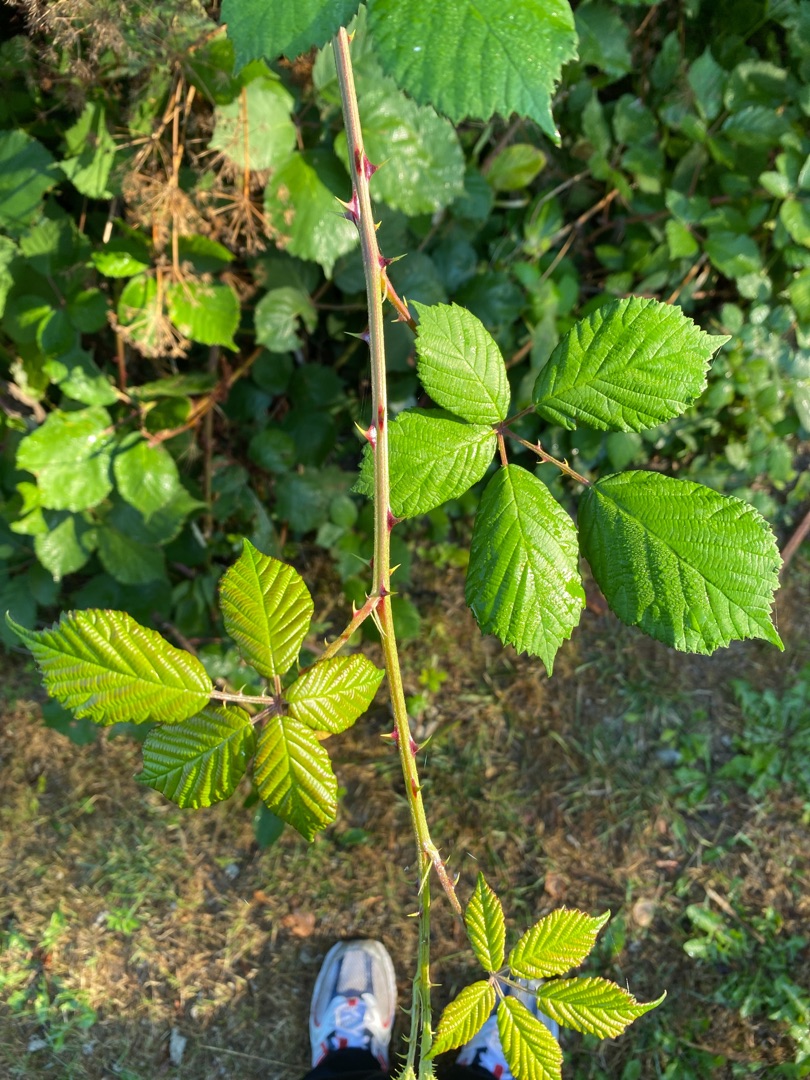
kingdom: Plantae
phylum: Tracheophyta
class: Magnoliopsida
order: Rosales
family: Rosaceae
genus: Rubus
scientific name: Rubus
